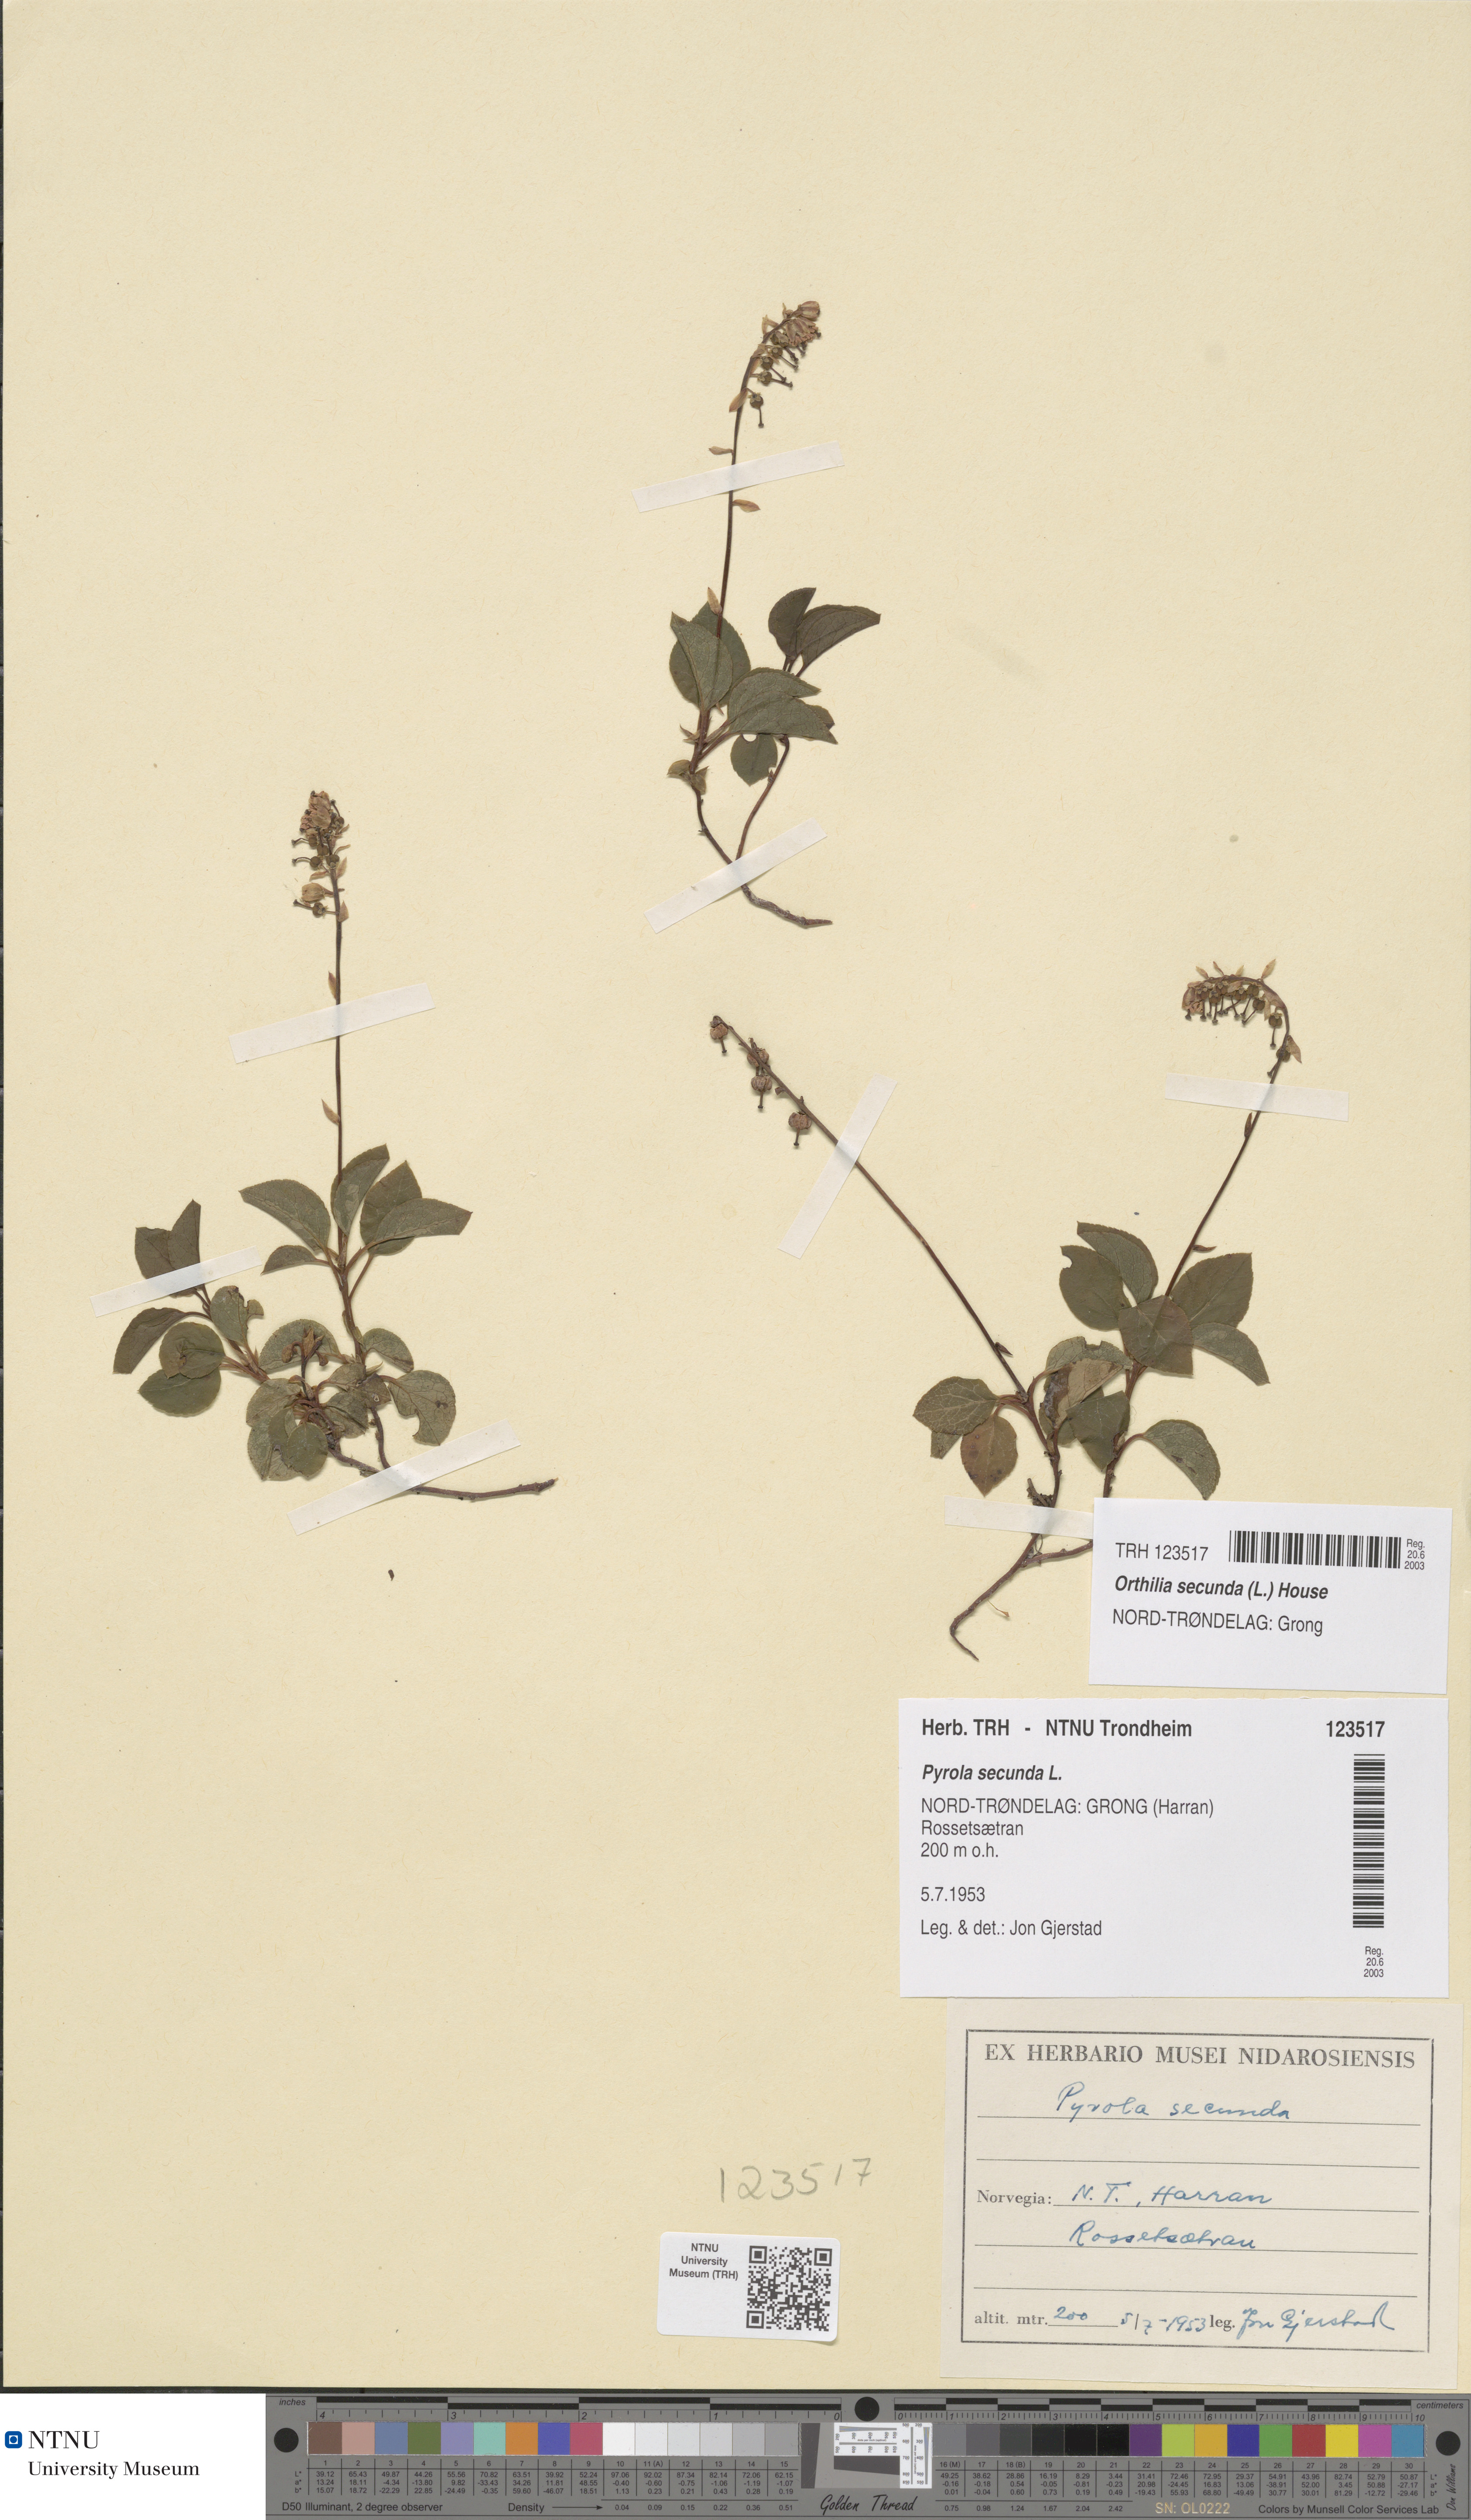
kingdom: Plantae
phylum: Tracheophyta
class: Magnoliopsida
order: Ericales
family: Ericaceae
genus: Orthilia
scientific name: Orthilia secunda
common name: One-sided orthilia
